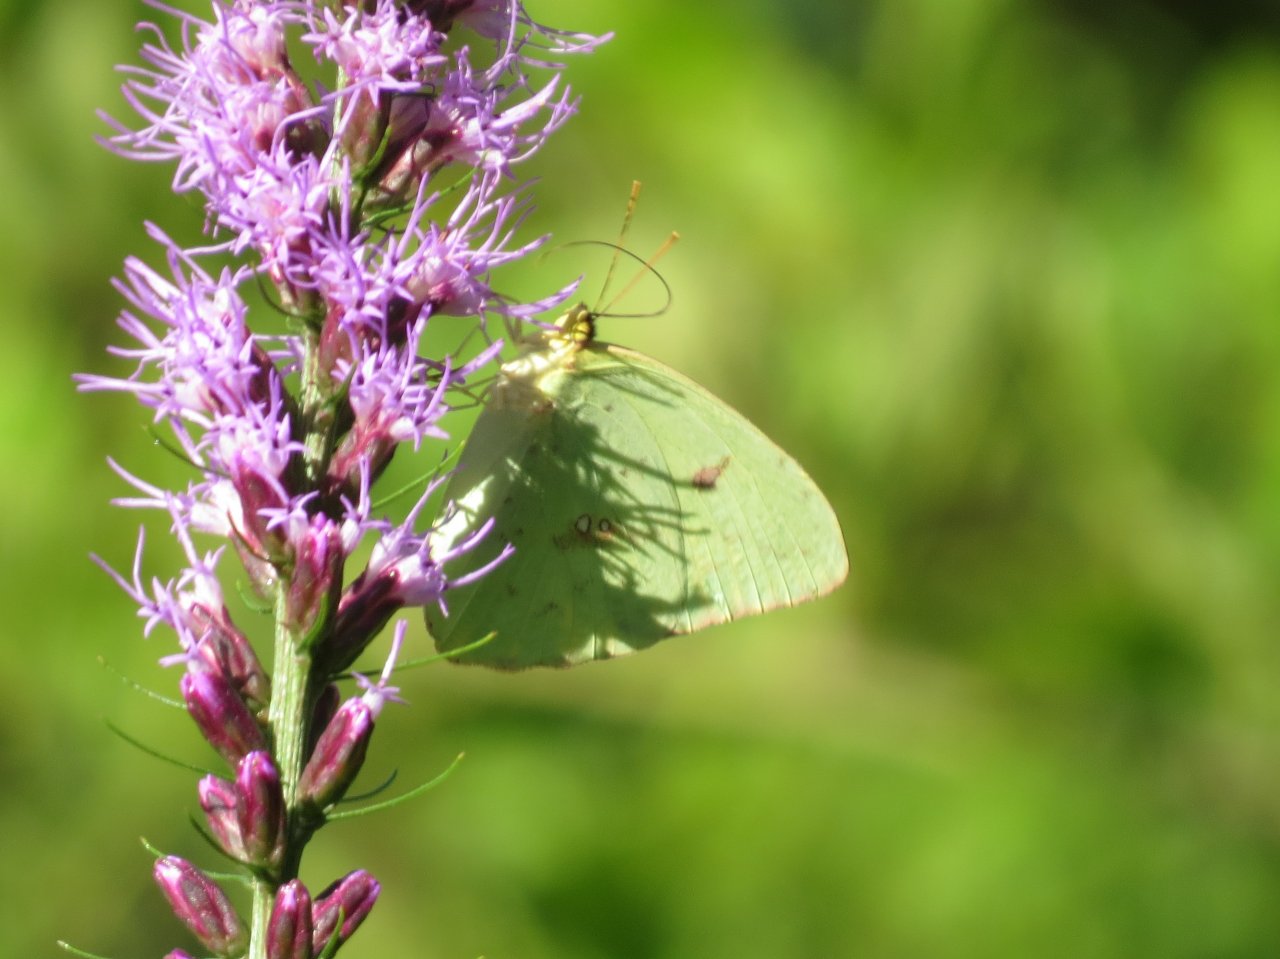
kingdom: Animalia
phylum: Arthropoda
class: Insecta
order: Lepidoptera
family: Pieridae
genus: Phoebis
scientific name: Phoebis sennae
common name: Cloudless Sulphur
